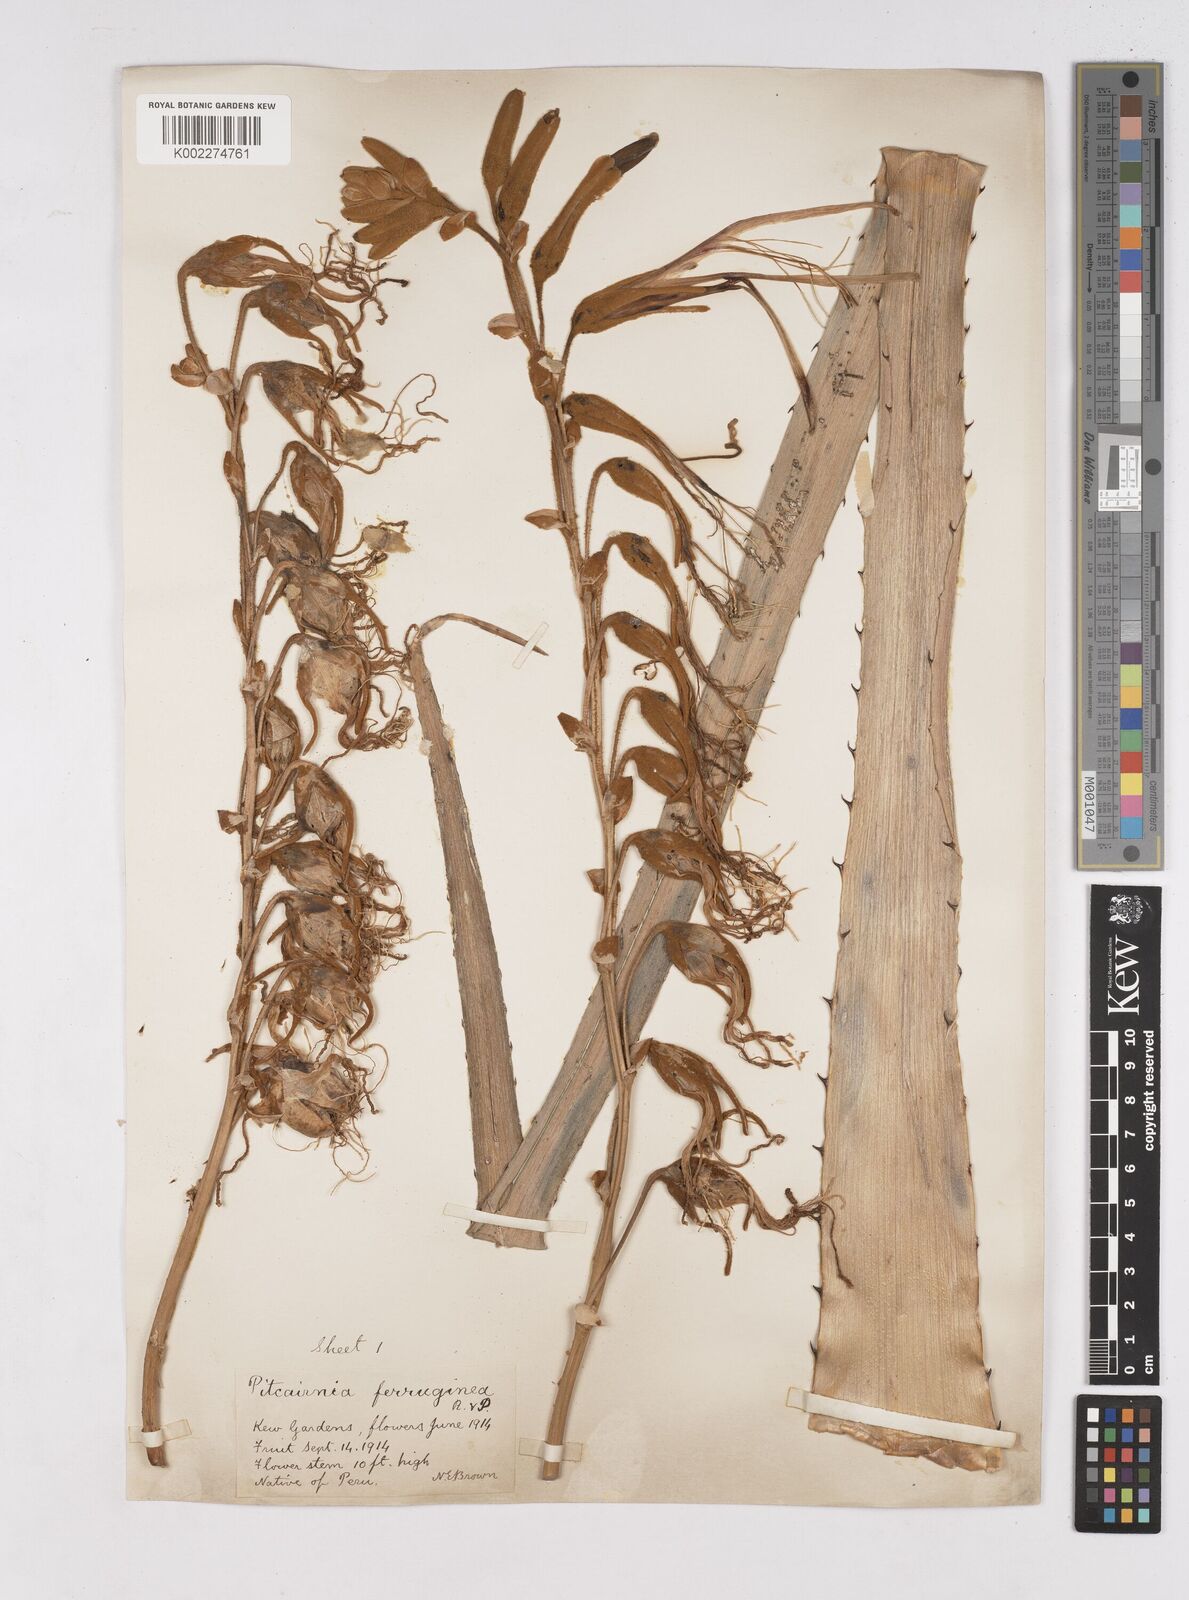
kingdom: Plantae
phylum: Tracheophyta
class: Liliopsida
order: Poales
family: Bromeliaceae
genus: Puya
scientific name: Puya ferruginea
